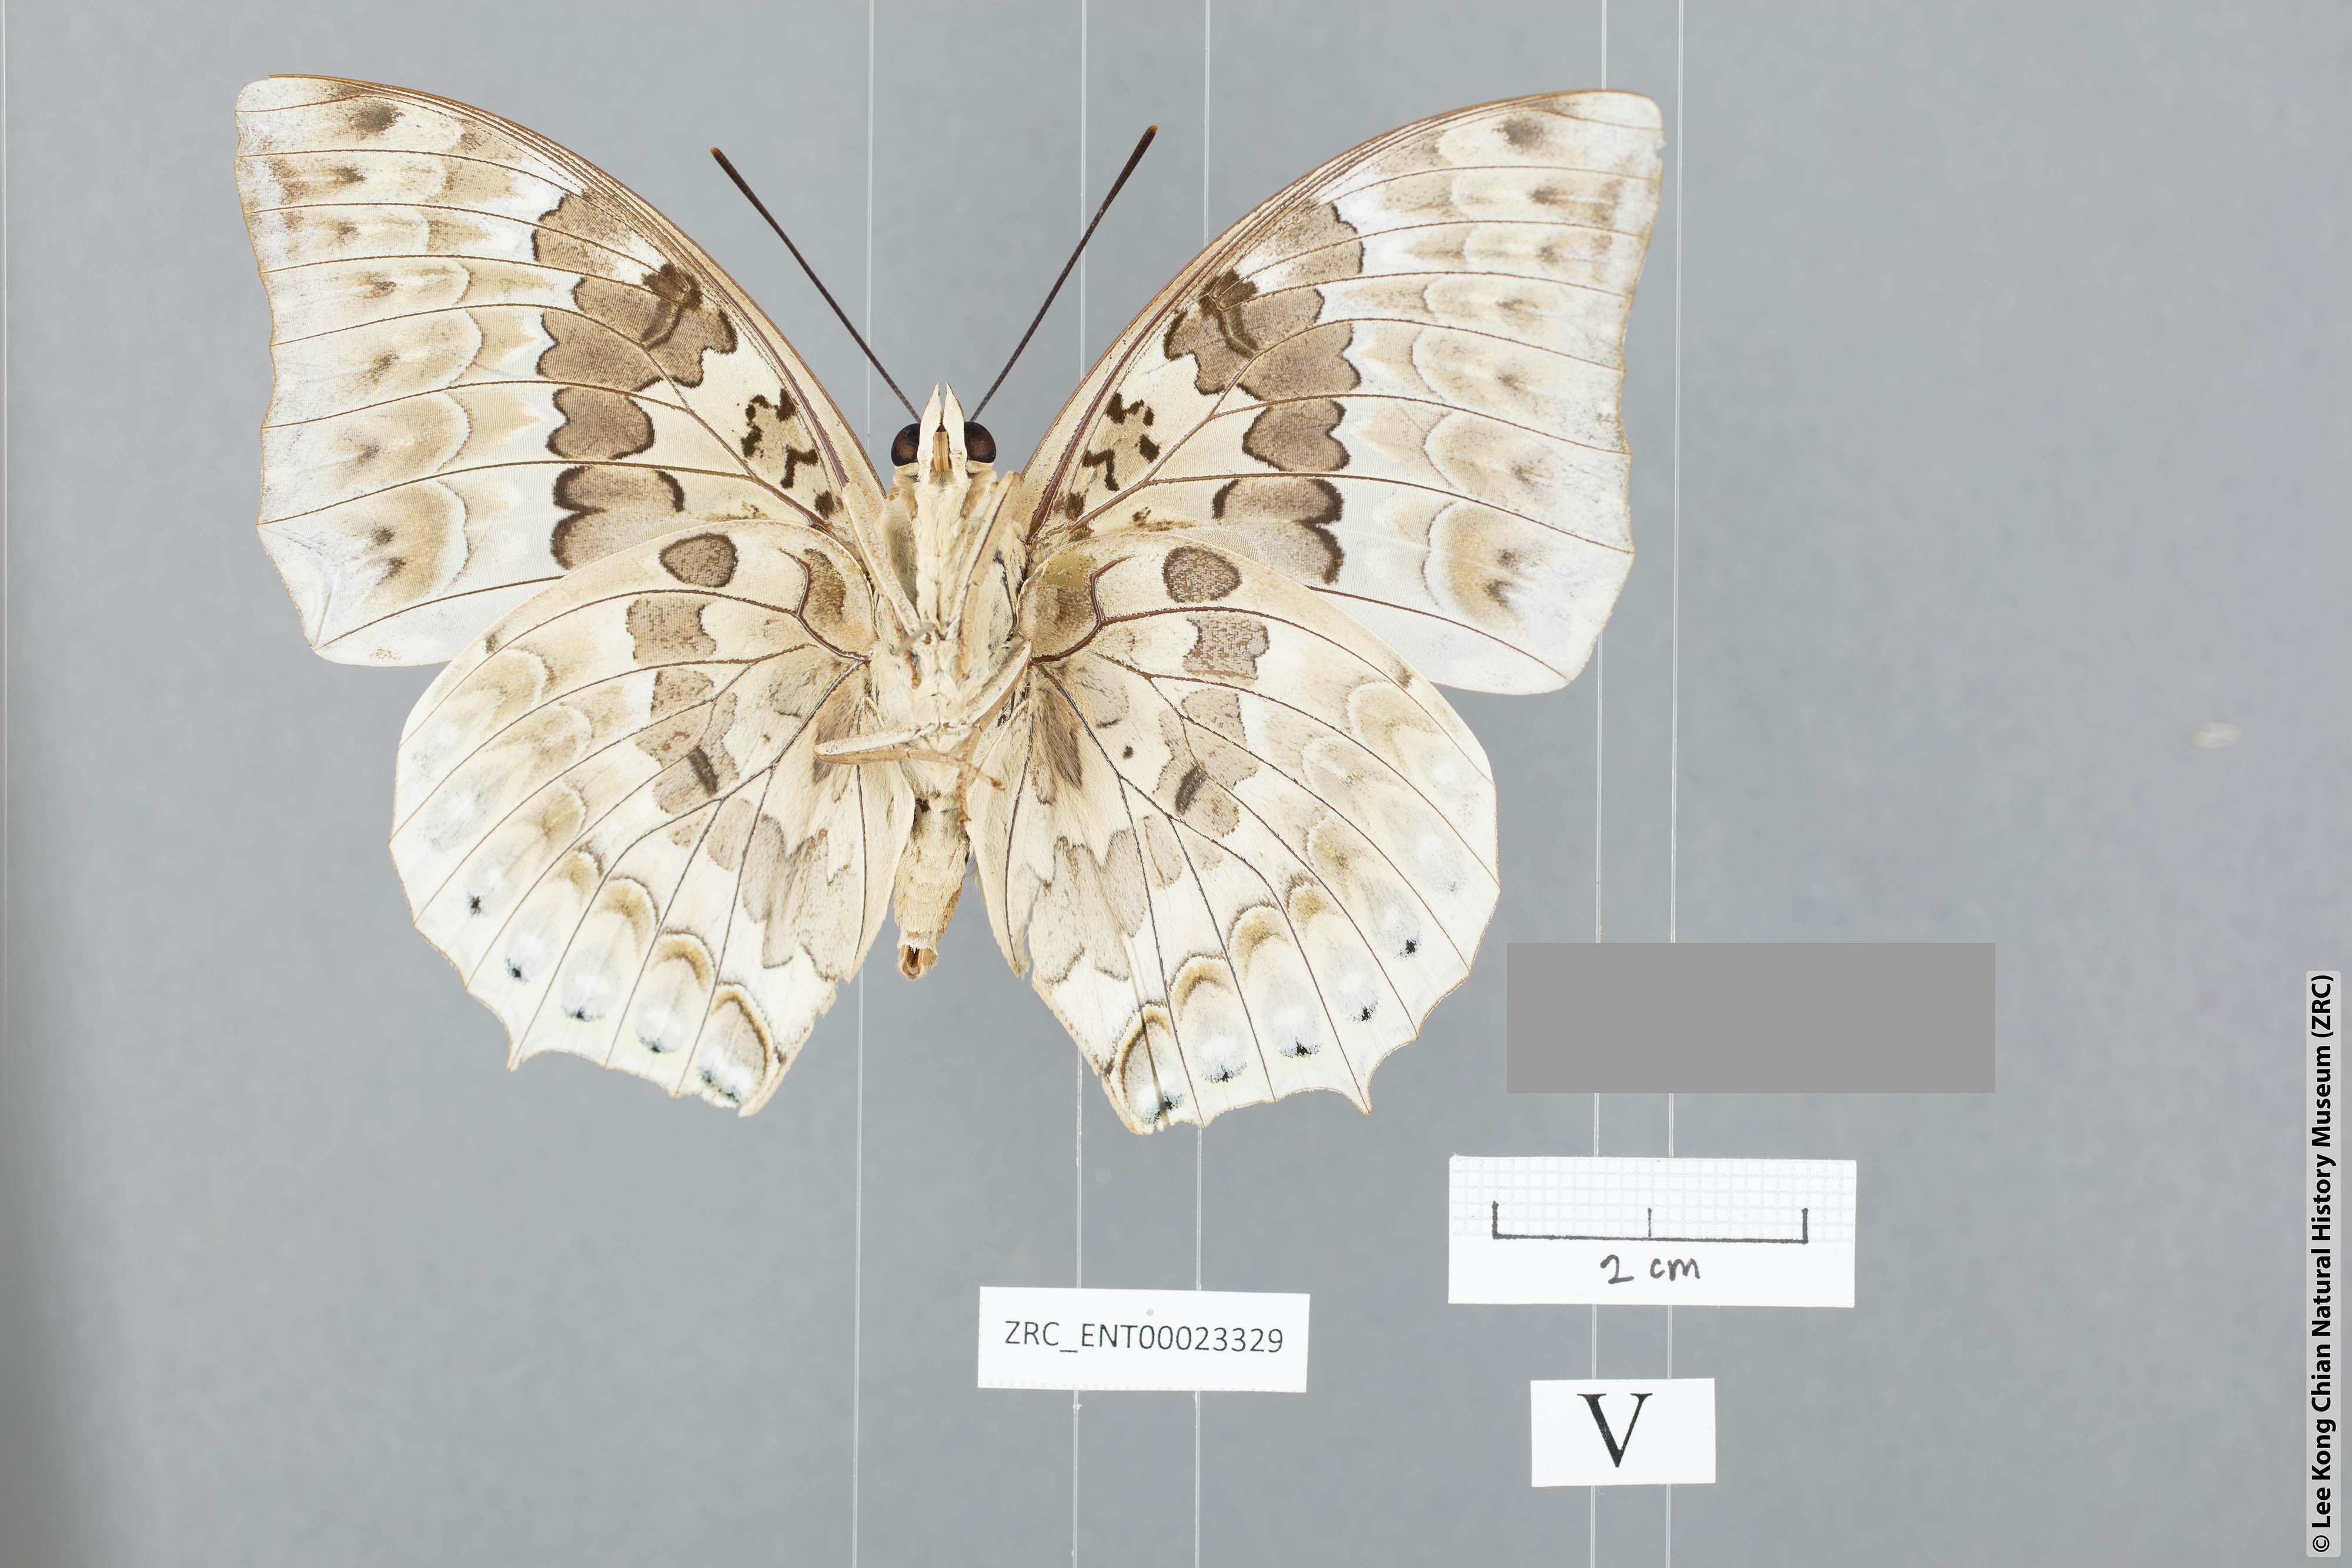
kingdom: Animalia
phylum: Arthropoda
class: Insecta
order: Lepidoptera
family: Nymphalidae
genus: Charaxes
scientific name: Charaxes durnfordi
